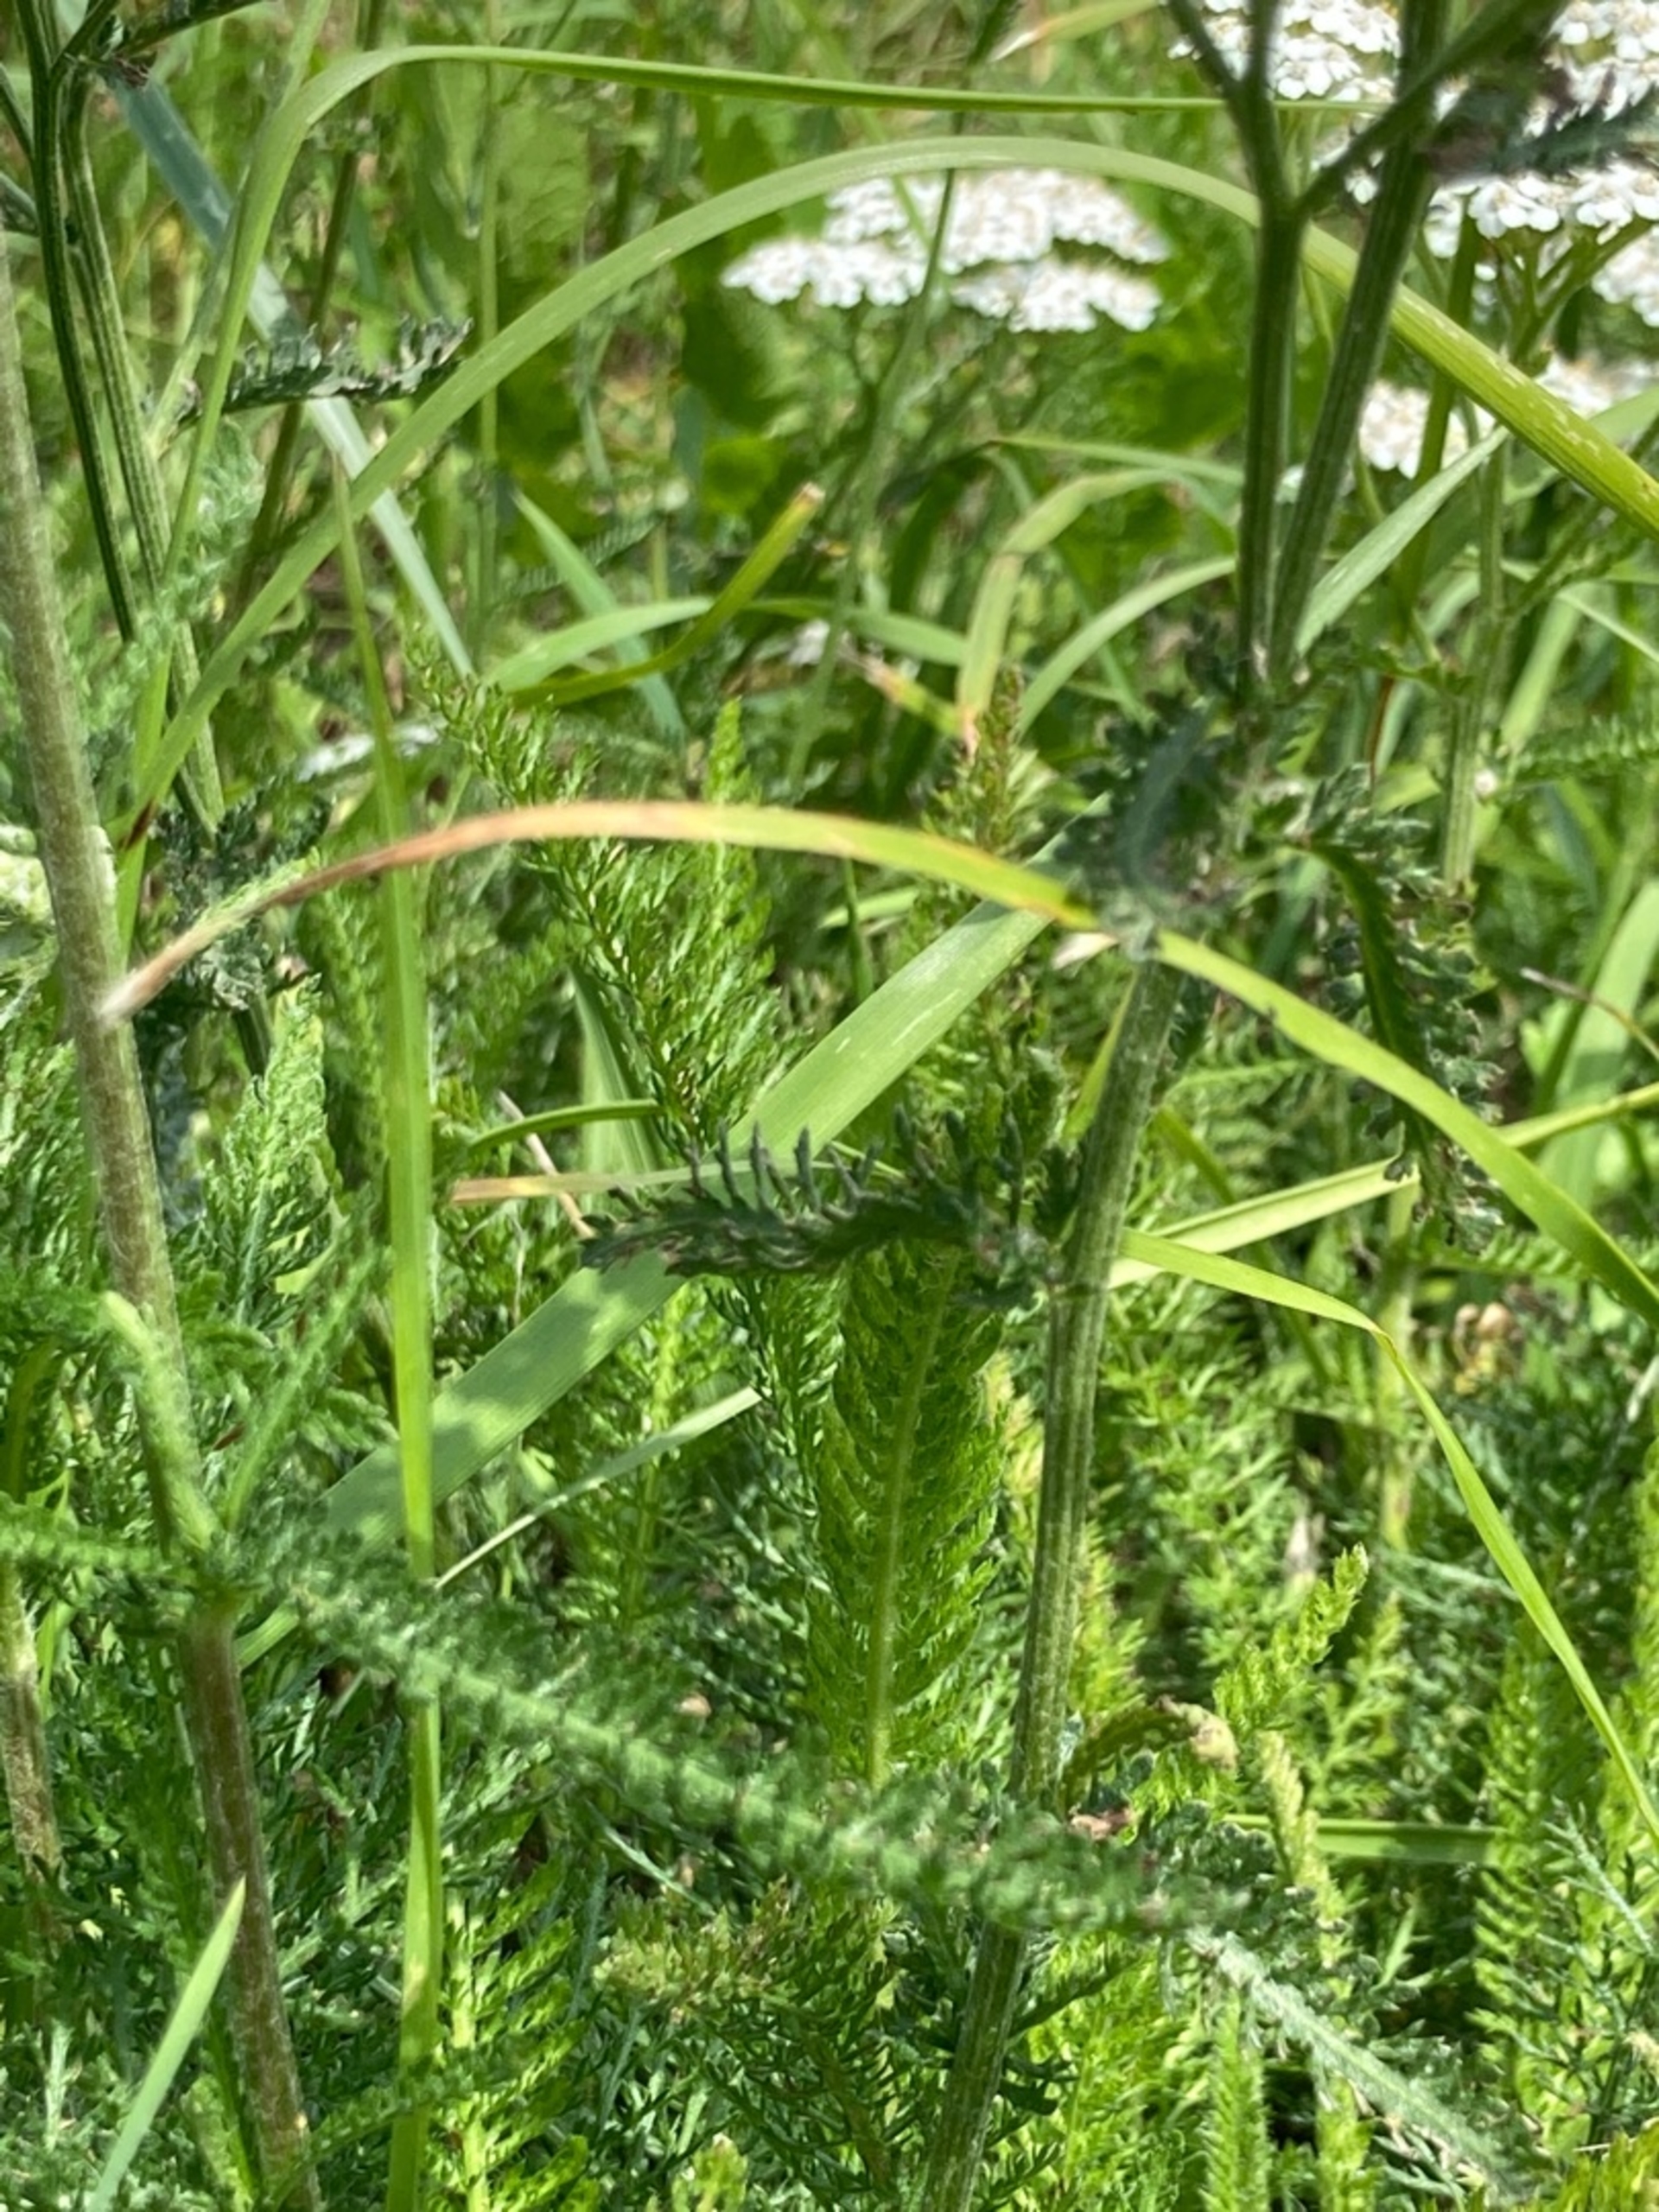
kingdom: Plantae
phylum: Tracheophyta
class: Magnoliopsida
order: Asterales
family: Asteraceae
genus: Achillea
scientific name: Achillea millefolium
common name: Almindelig røllike
